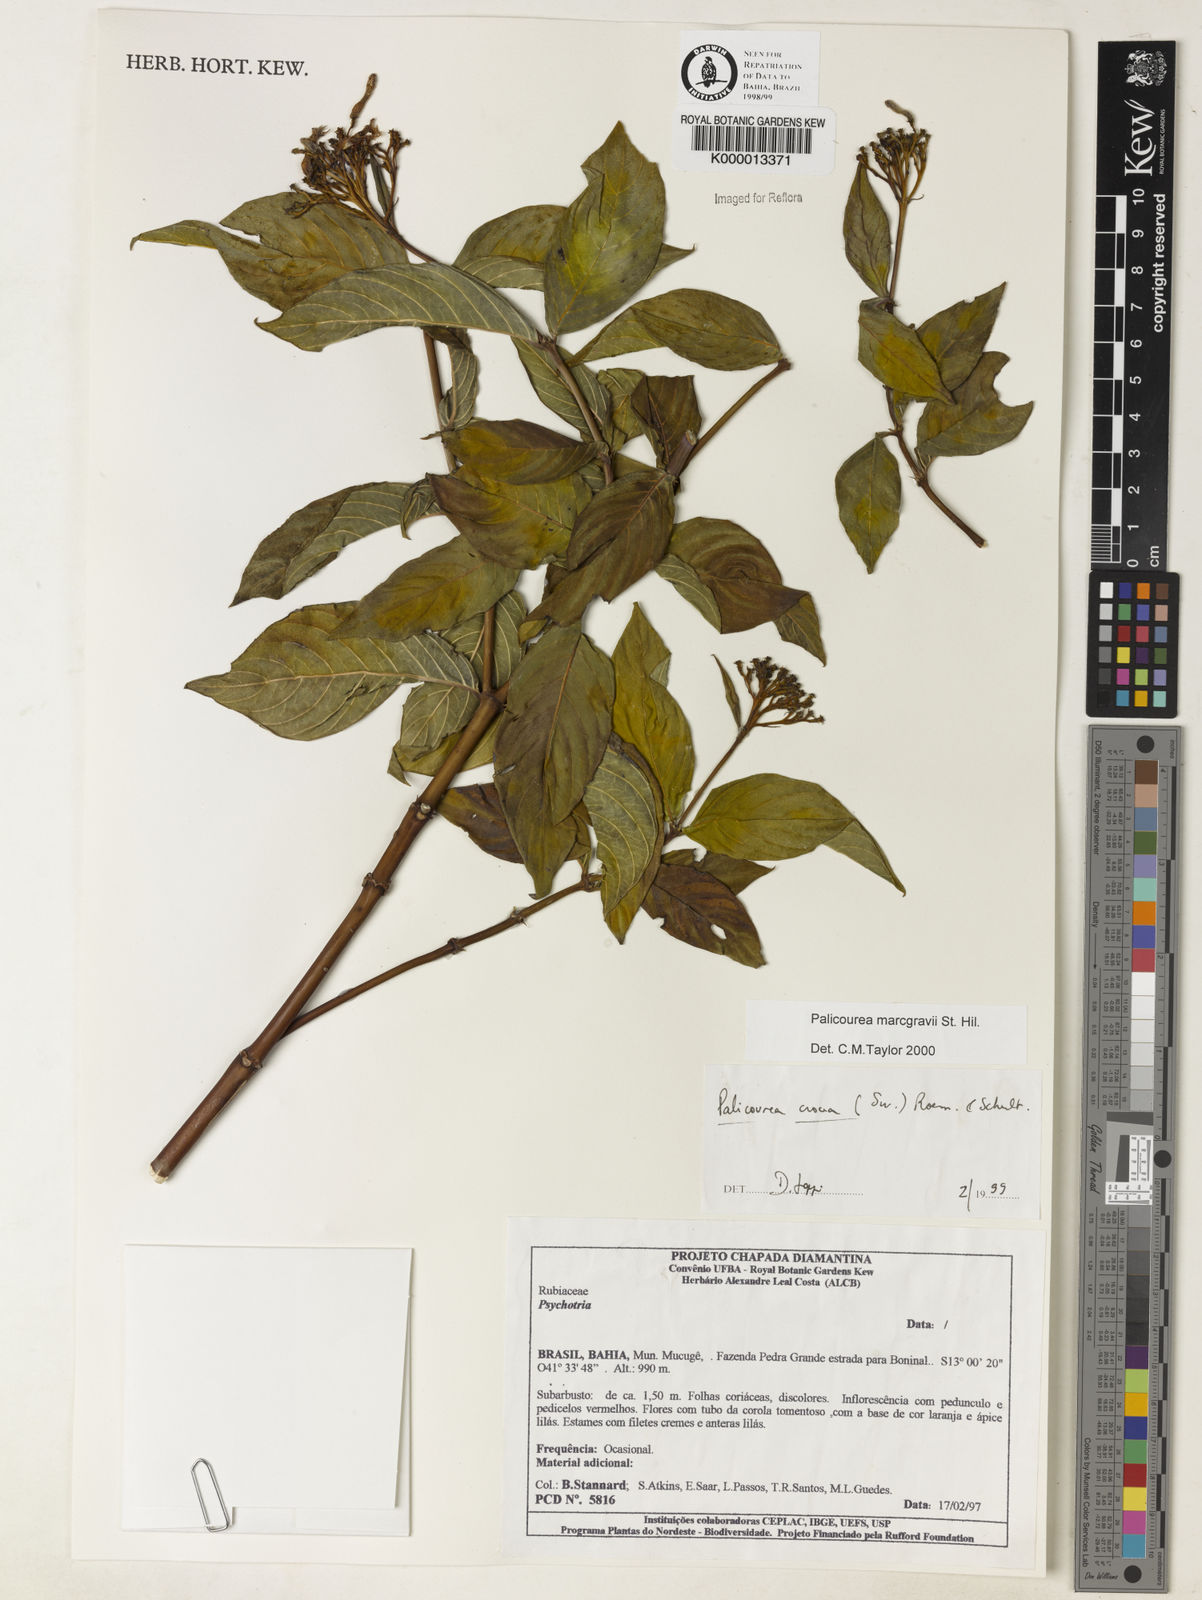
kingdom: Plantae
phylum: Tracheophyta
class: Magnoliopsida
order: Gentianales
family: Rubiaceae
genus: Palicourea
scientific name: Palicourea marcgravii
